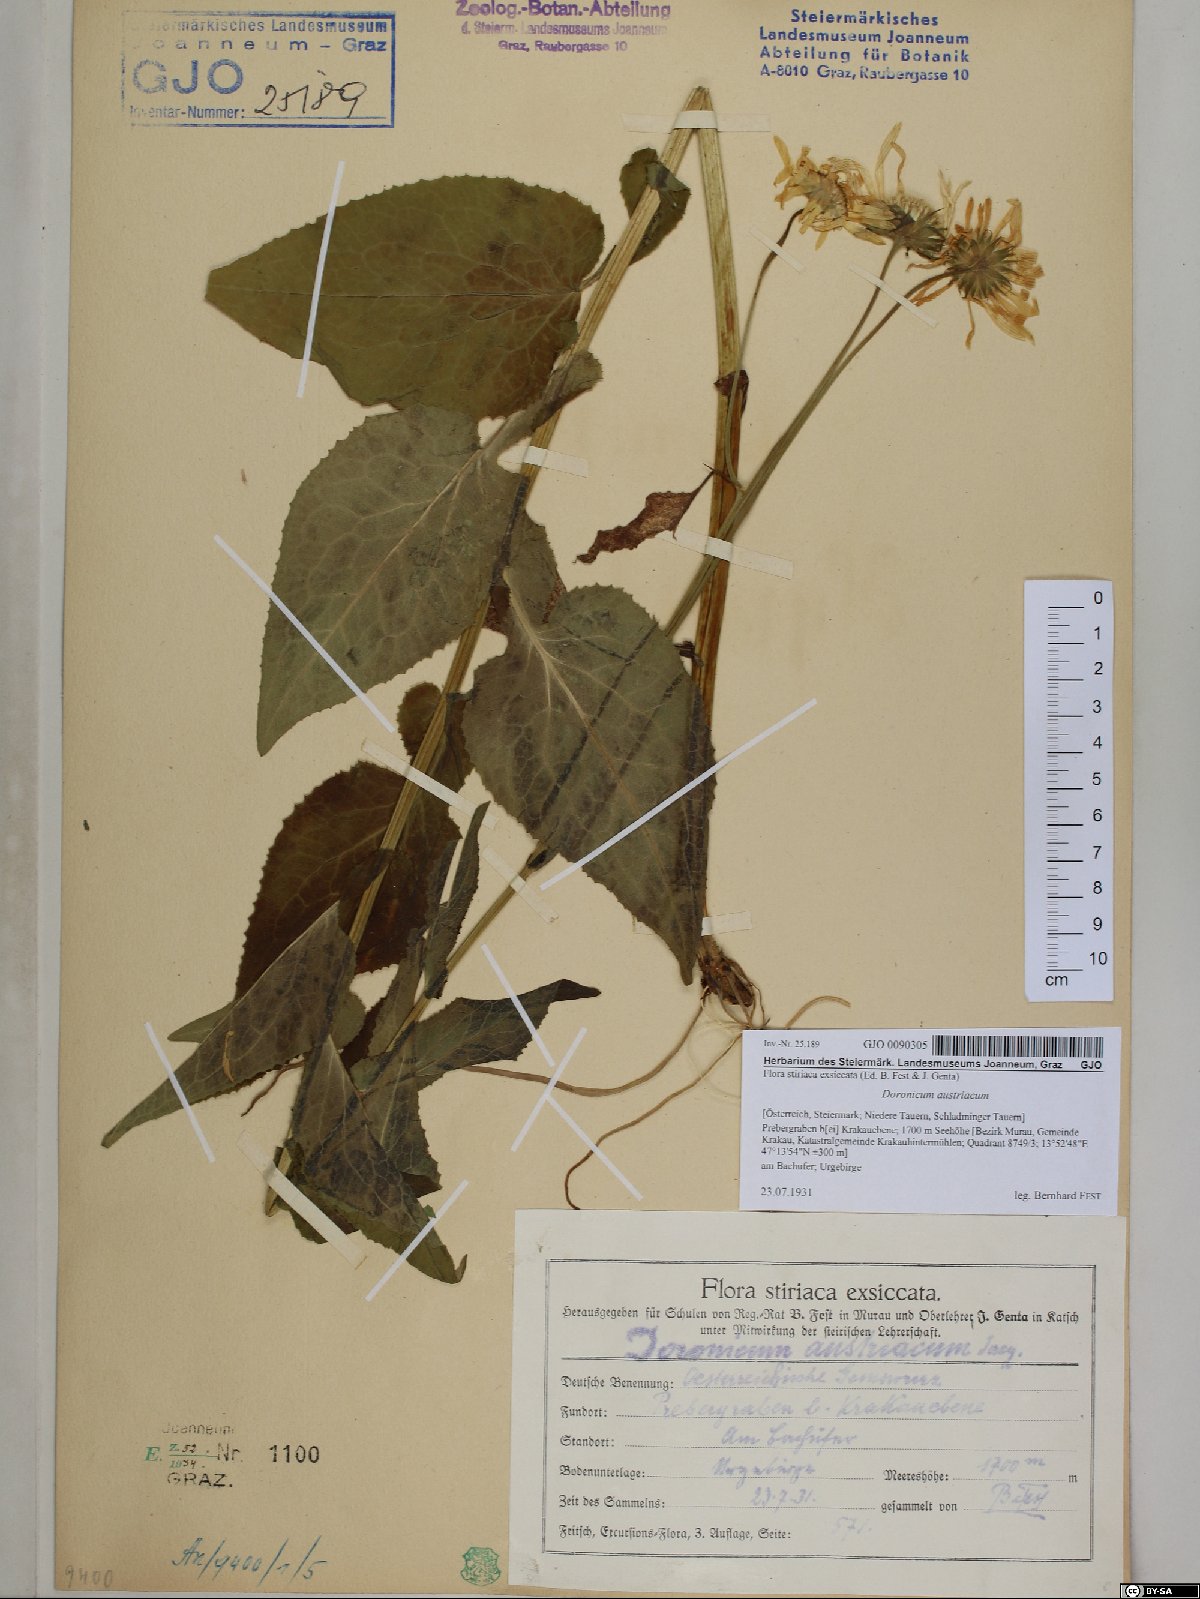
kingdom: Plantae
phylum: Tracheophyta
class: Magnoliopsida
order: Asterales
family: Asteraceae
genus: Doronicum
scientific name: Doronicum austriacum
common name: Austrian leopard's-bane
